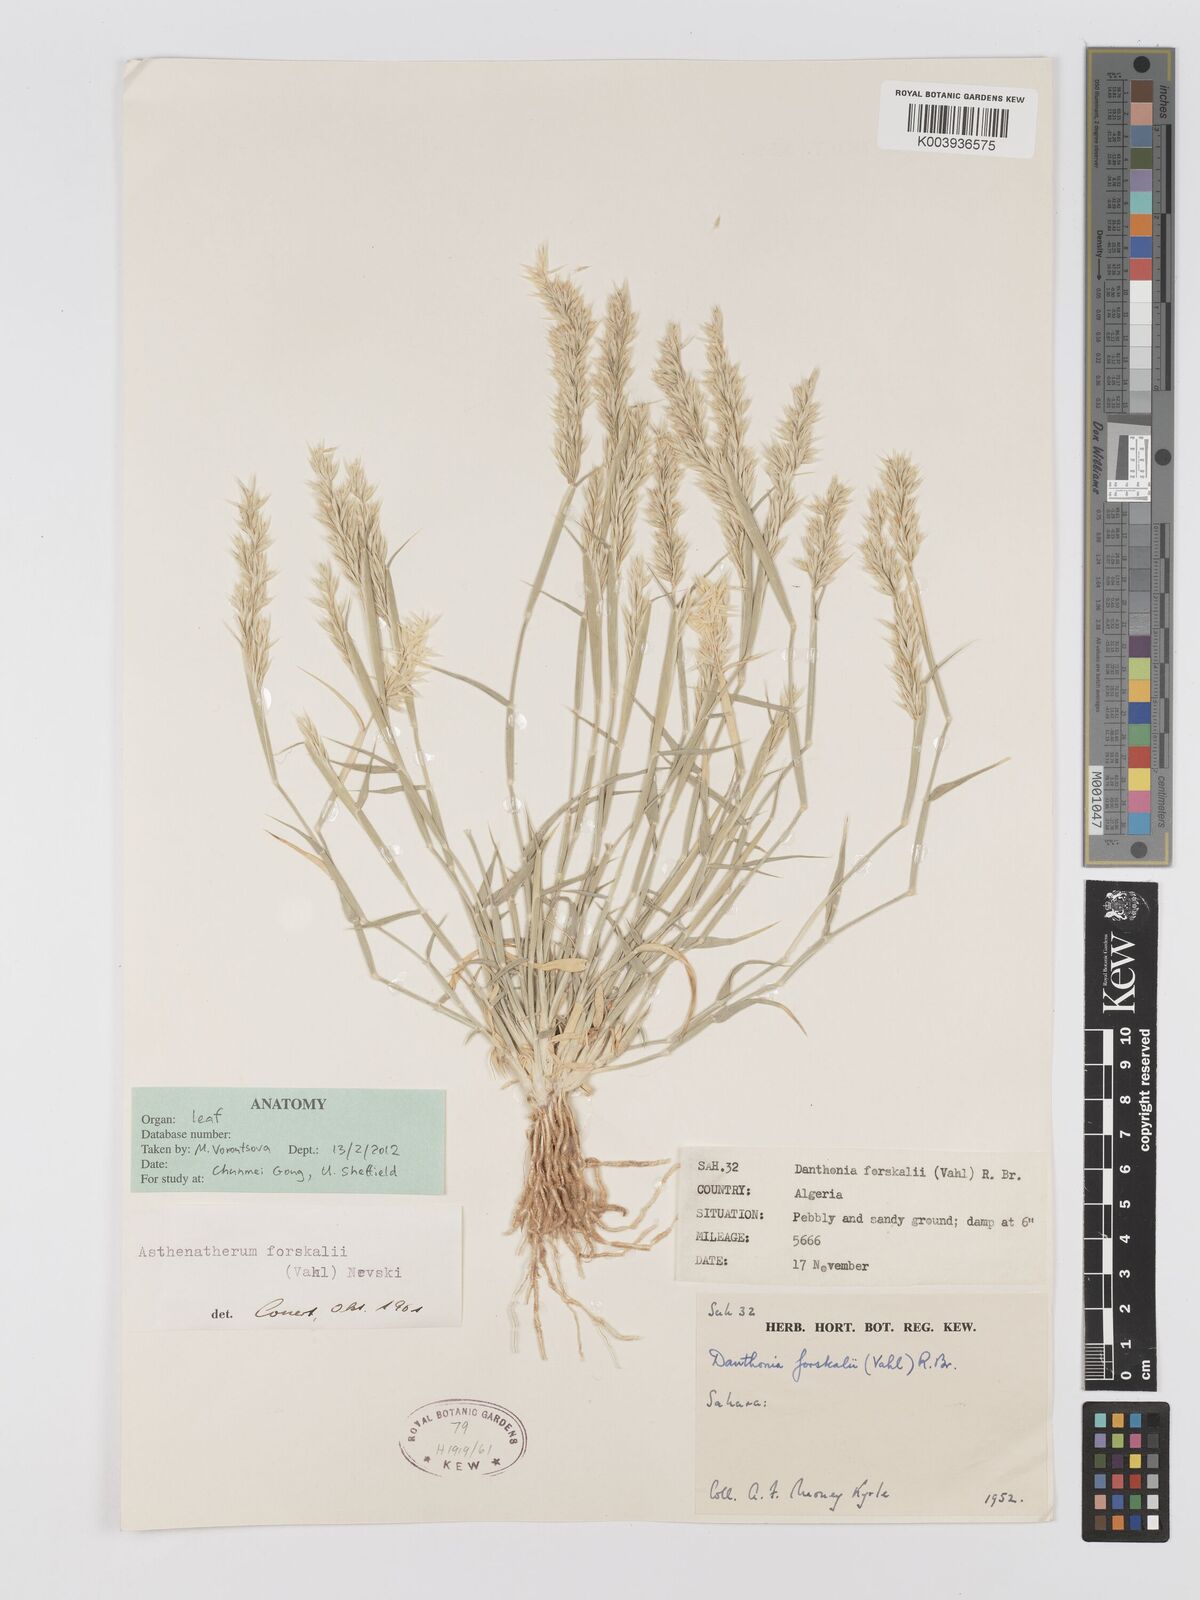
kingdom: Plantae
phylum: Tracheophyta
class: Liliopsida
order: Poales
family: Poaceae
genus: Centropodia
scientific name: Centropodia forskaolii
